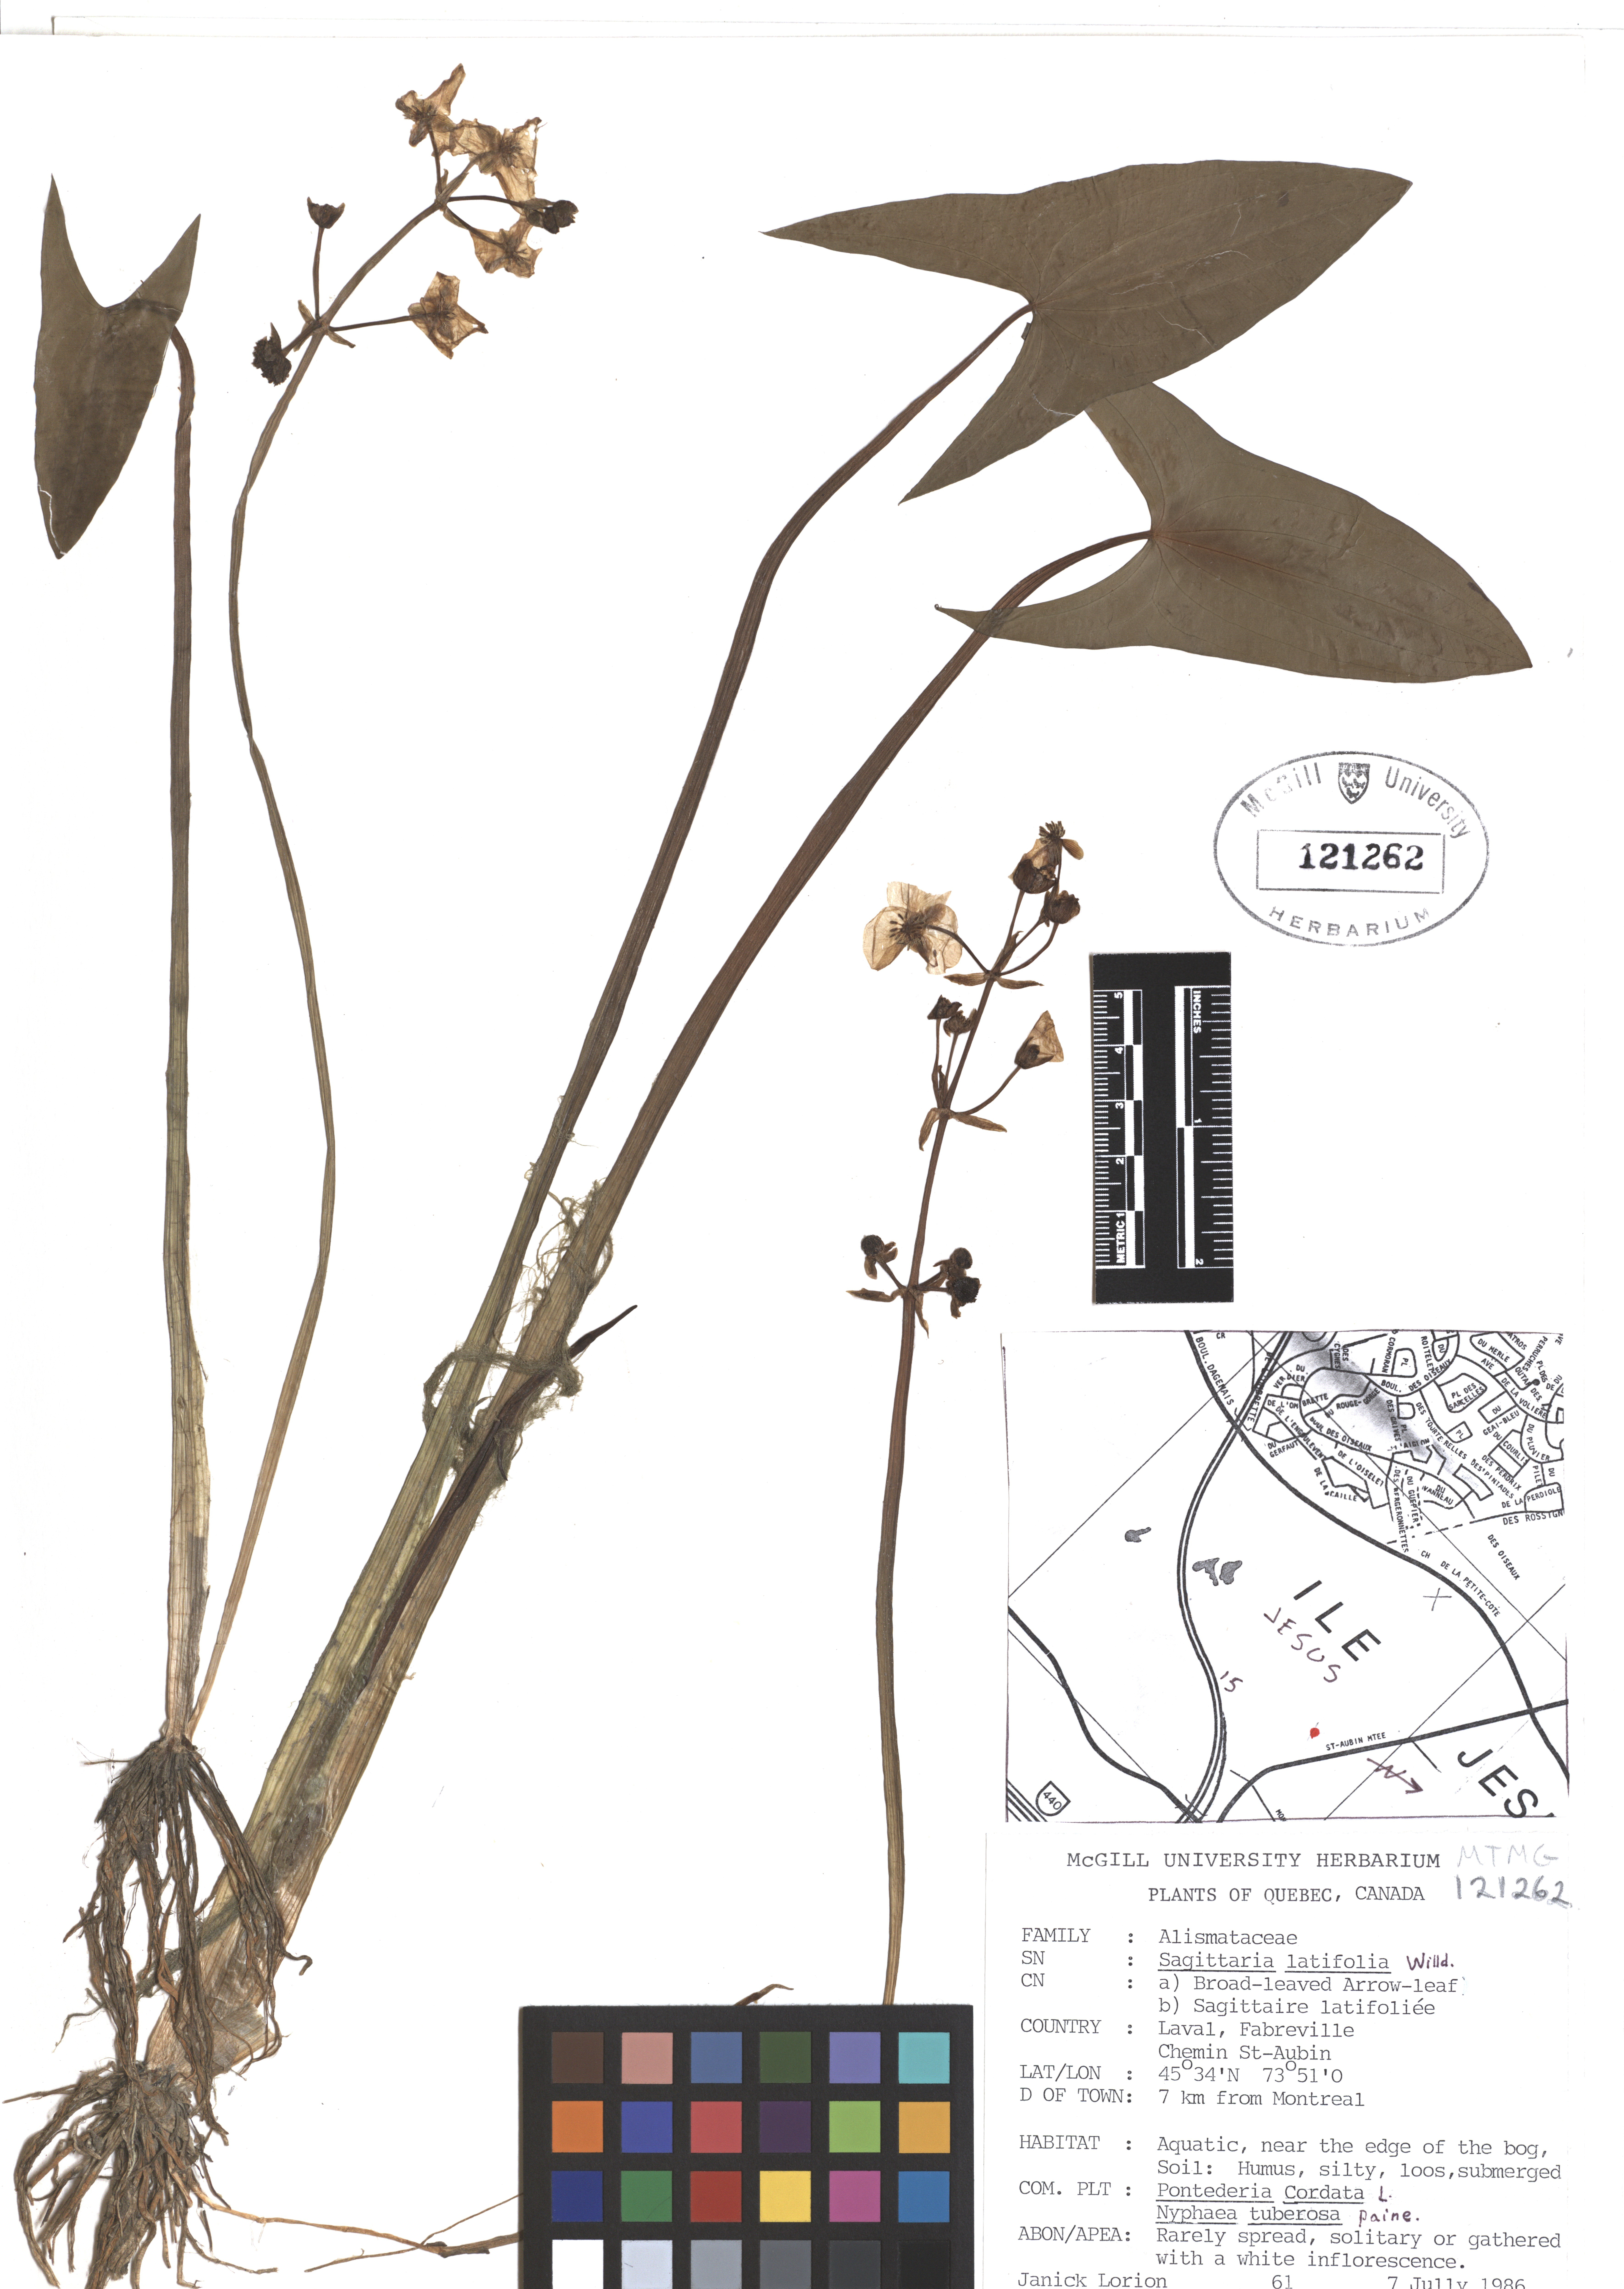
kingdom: Plantae
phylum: Tracheophyta
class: Liliopsida
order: Alismatales
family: Alismataceae
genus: Sagittaria
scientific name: Sagittaria latifolia
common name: Duck-potato
